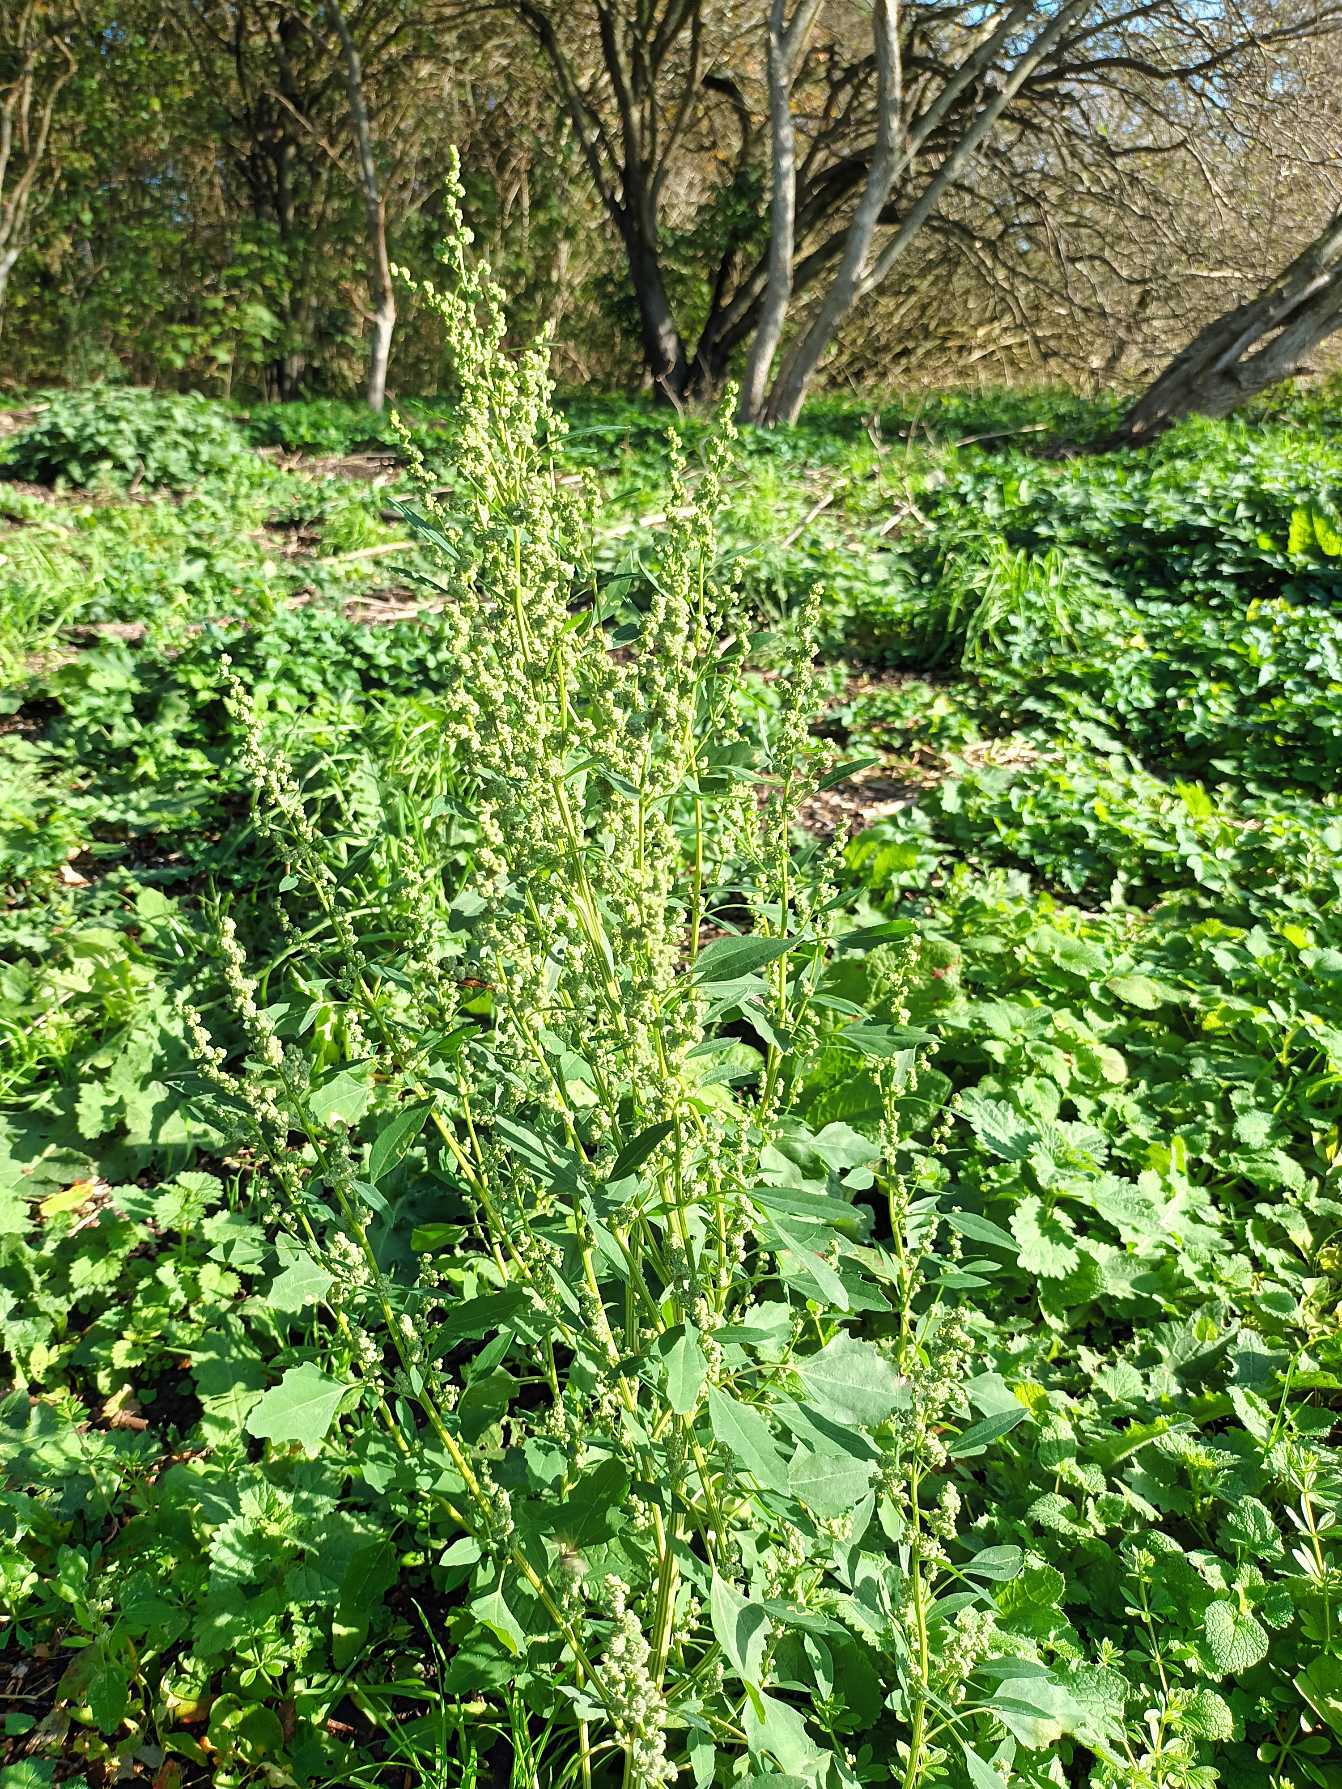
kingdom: Plantae
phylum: Tracheophyta
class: Magnoliopsida
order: Caryophyllales
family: Amaranthaceae
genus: Chenopodium
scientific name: Chenopodium album
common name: Hvidmelet gåsefod
